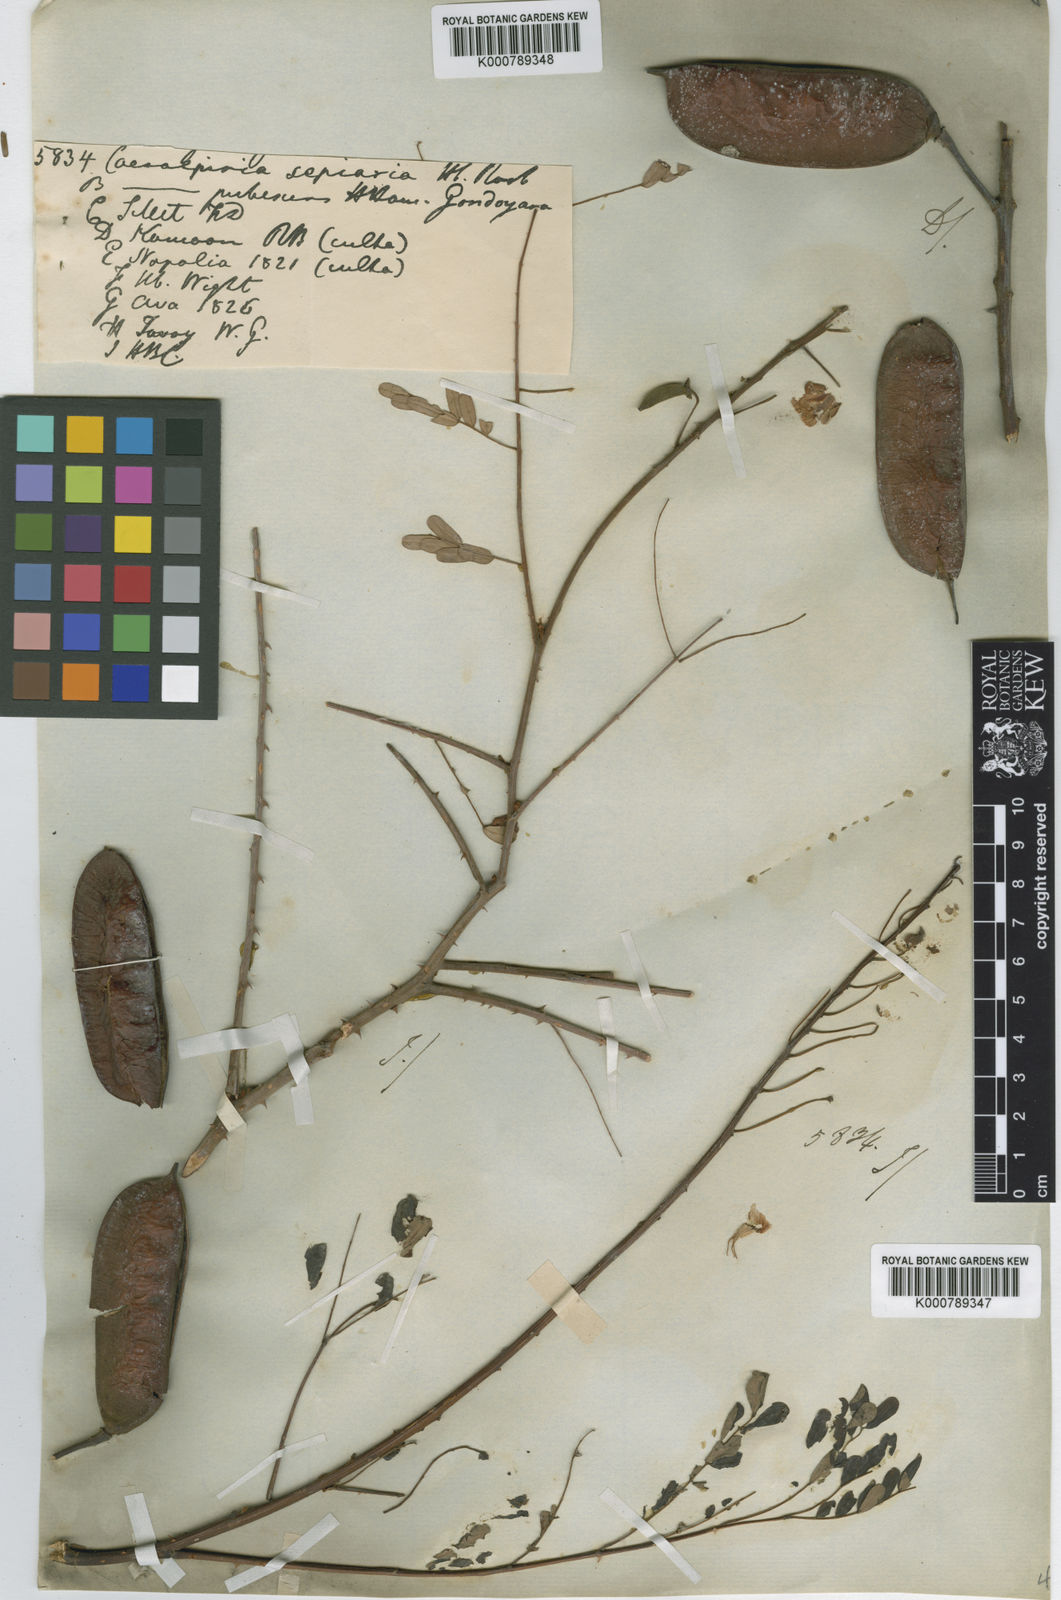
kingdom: Plantae
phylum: Tracheophyta
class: Magnoliopsida
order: Fabales
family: Fabaceae
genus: Biancaea
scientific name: Biancaea decapetala
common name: Cat's claw
